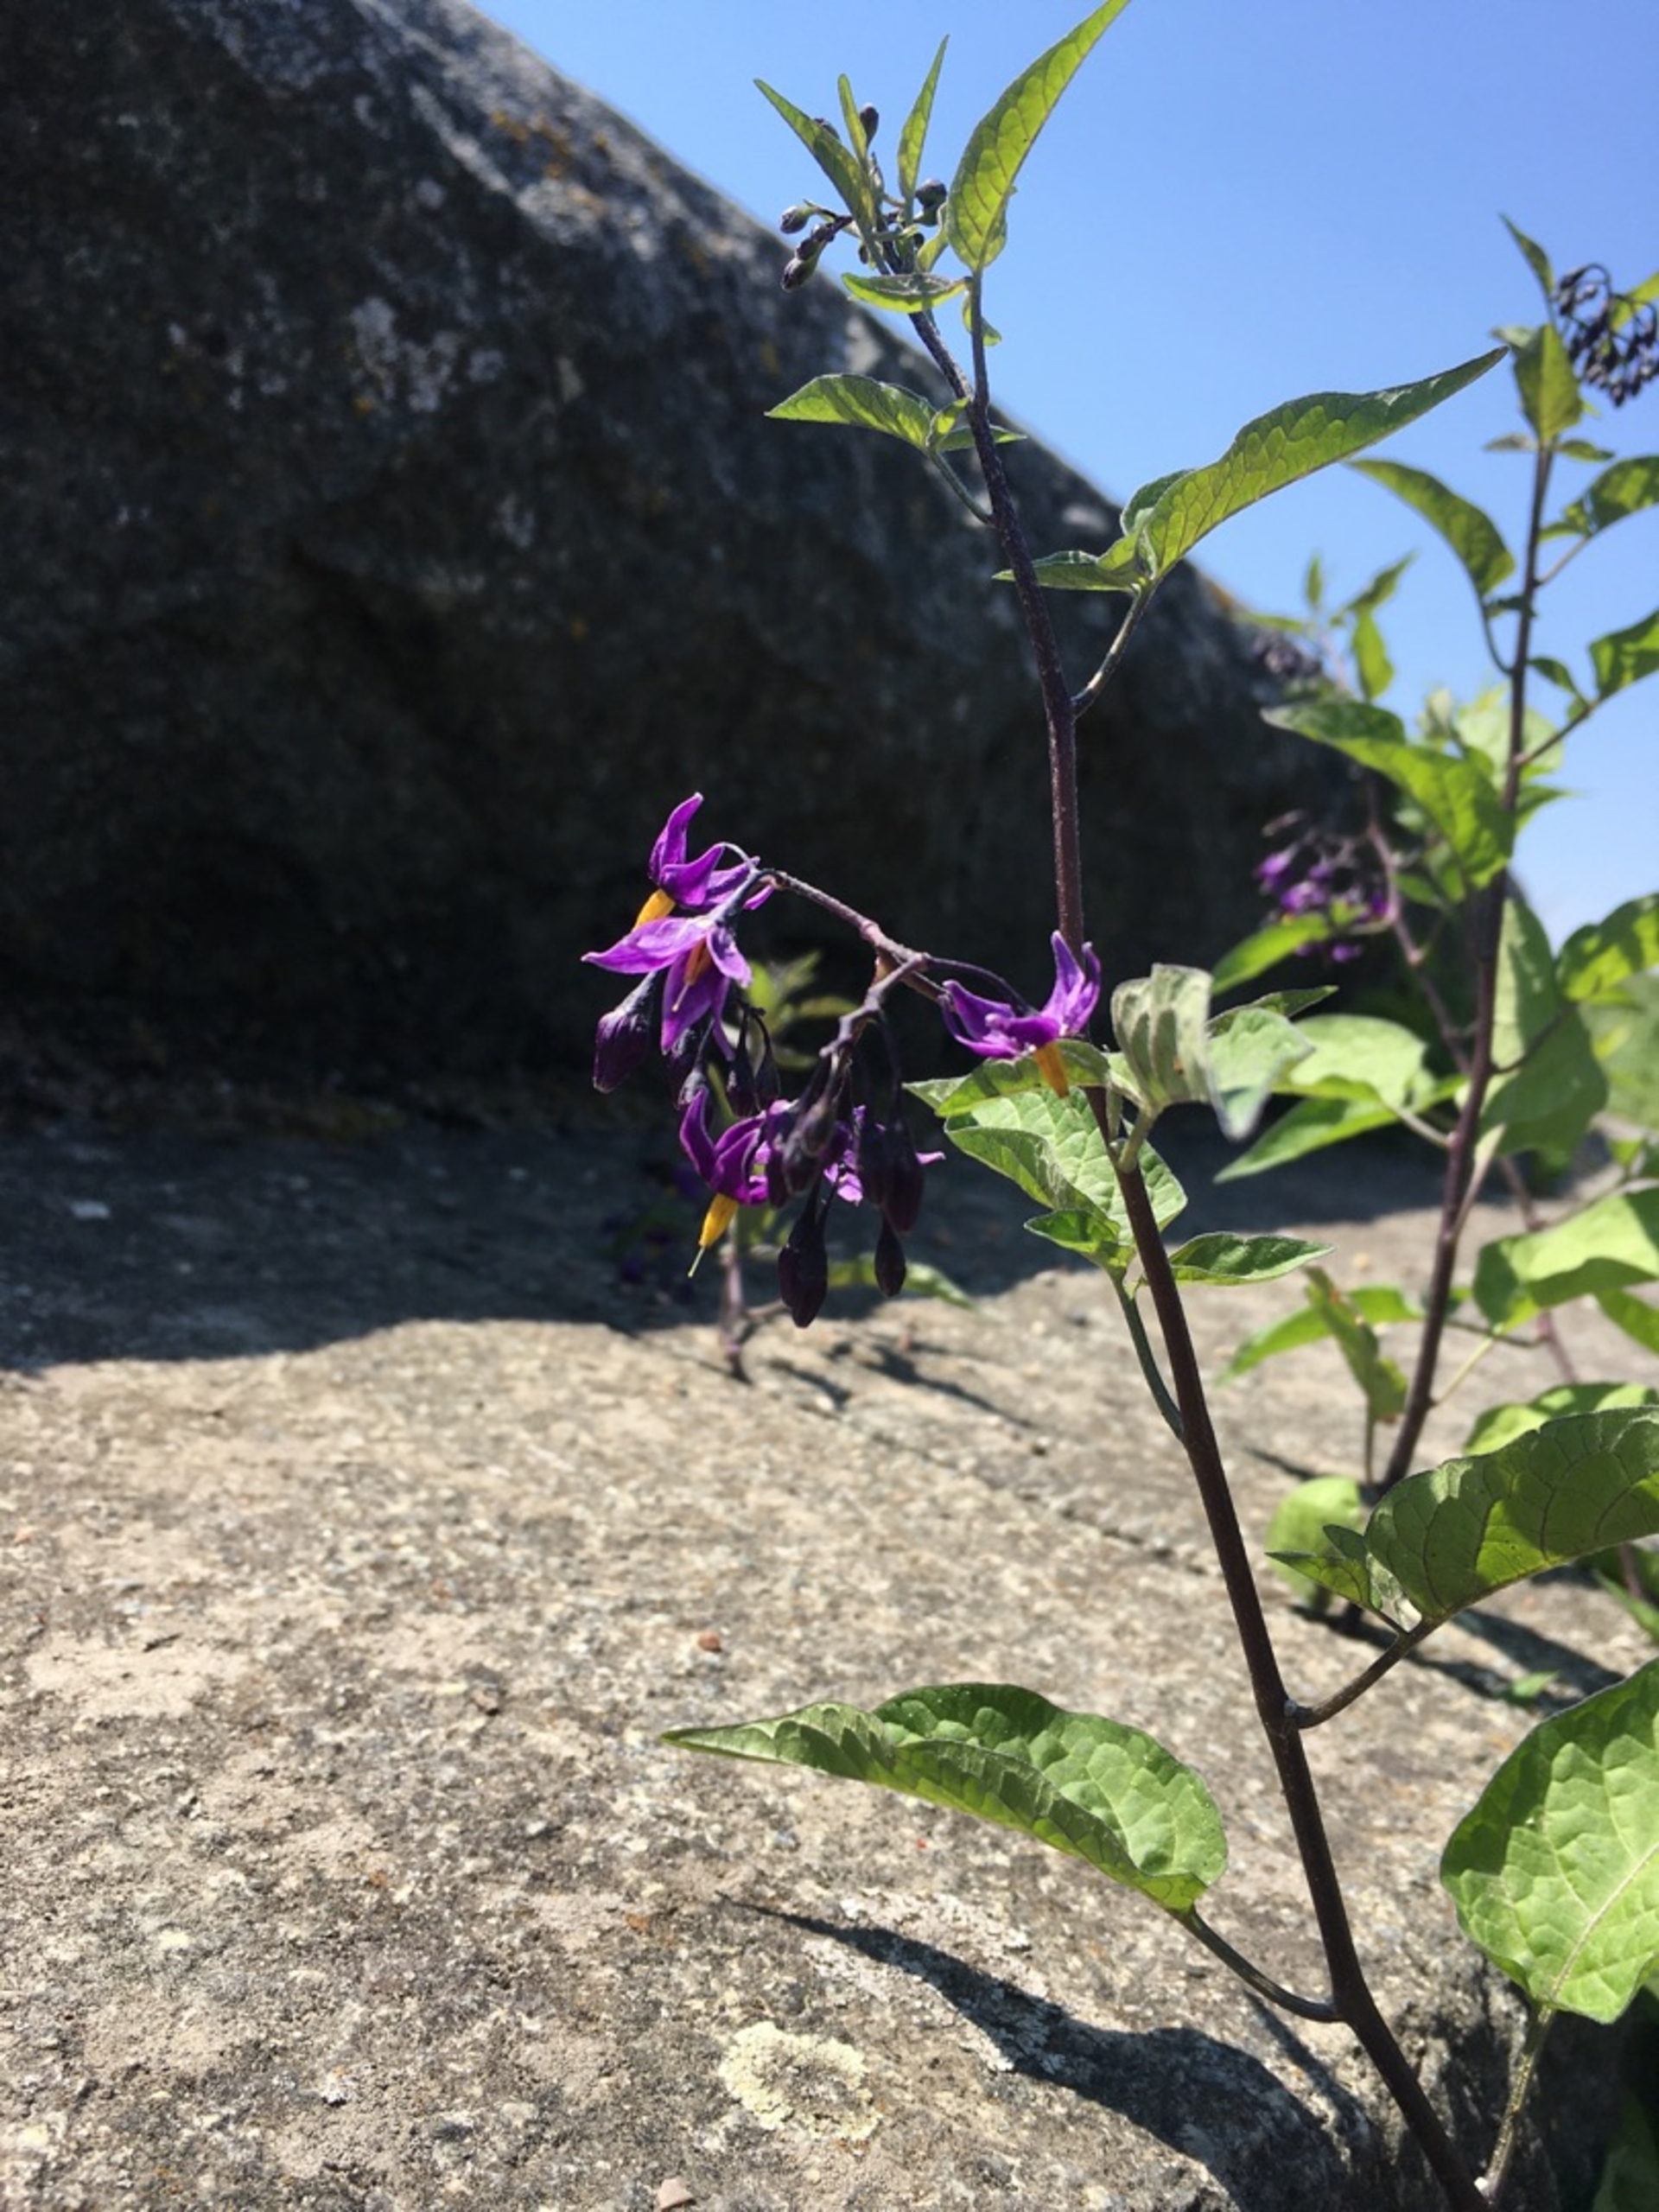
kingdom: Plantae
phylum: Tracheophyta
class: Magnoliopsida
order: Solanales
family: Solanaceae
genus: Solanum
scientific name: Solanum dulcamara
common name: Bittersød natskygge
